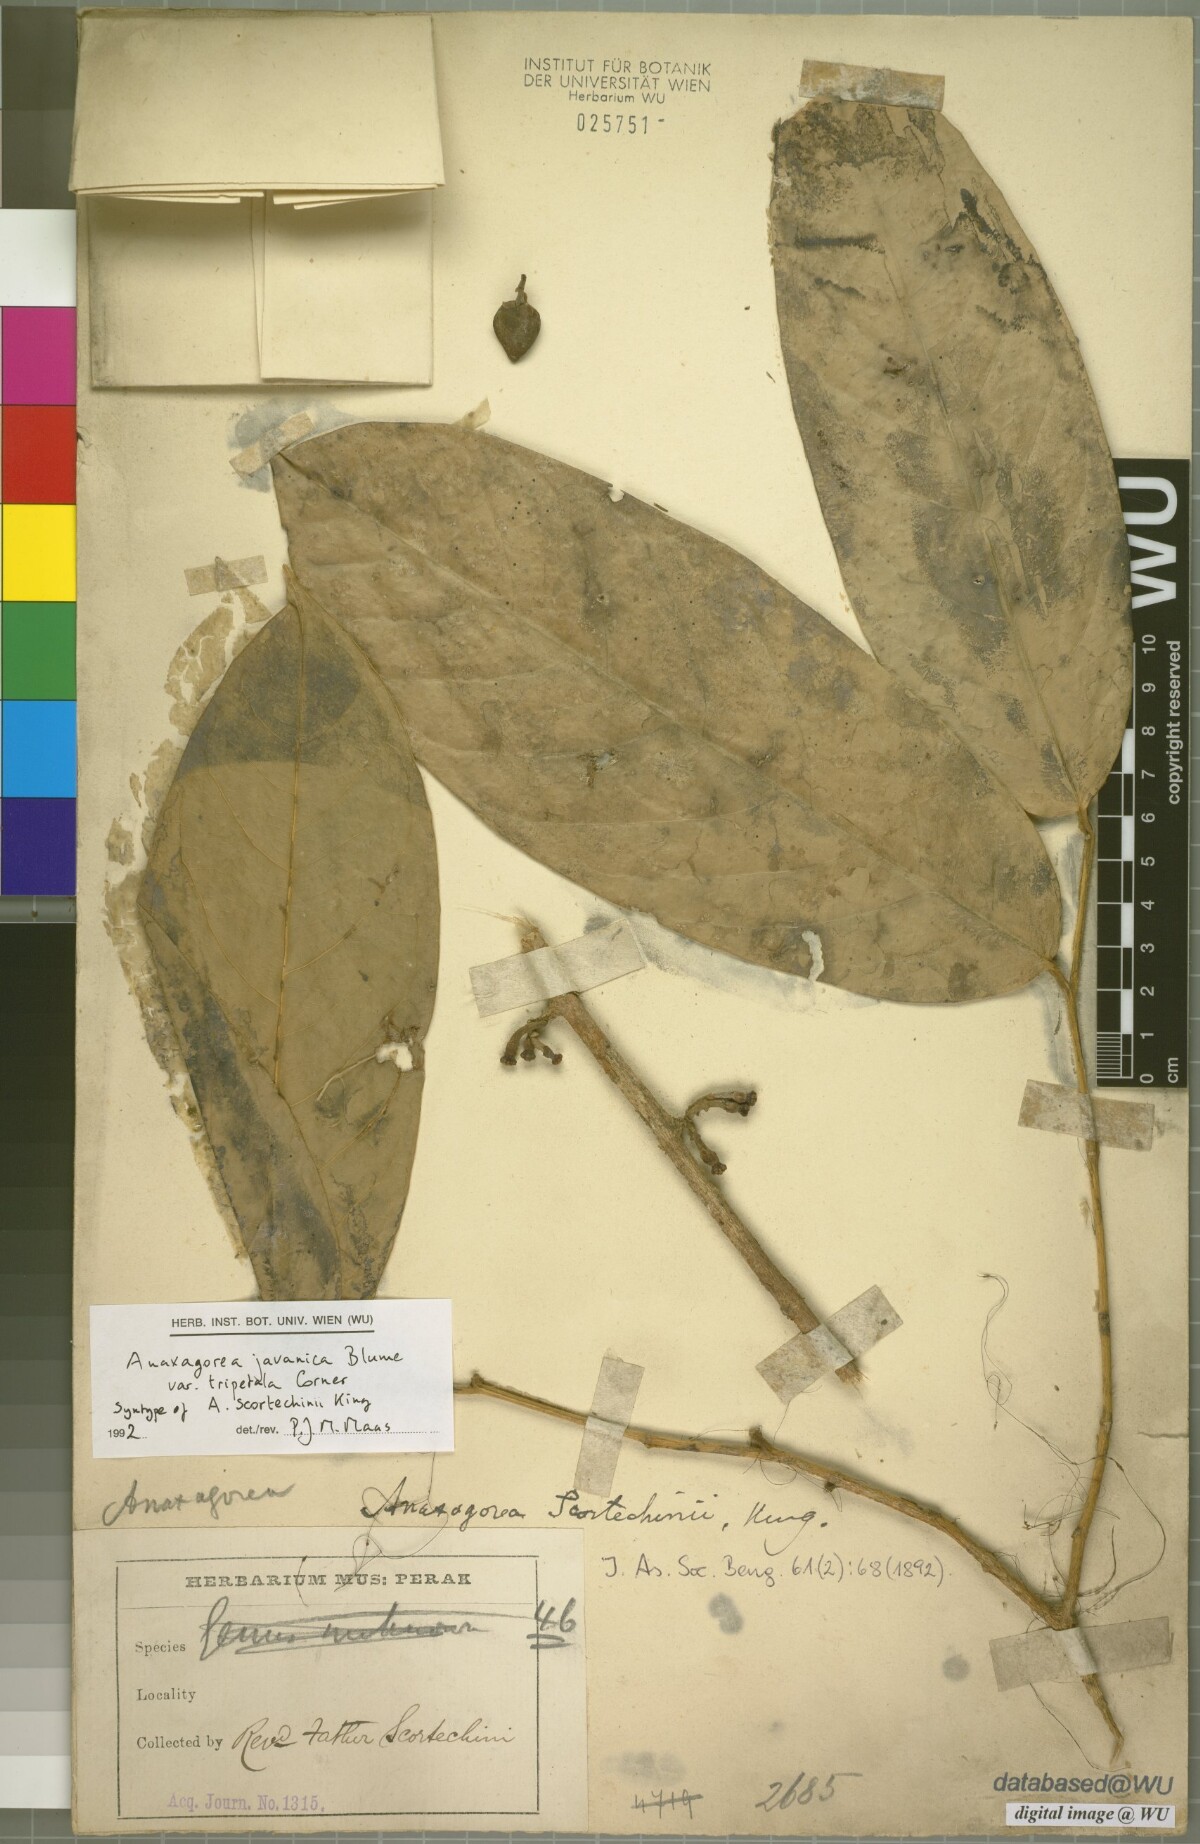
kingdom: Plantae
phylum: Tracheophyta
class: Magnoliopsida
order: Magnoliales
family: Annonaceae
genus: Anaxagorea
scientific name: Anaxagorea javanica
